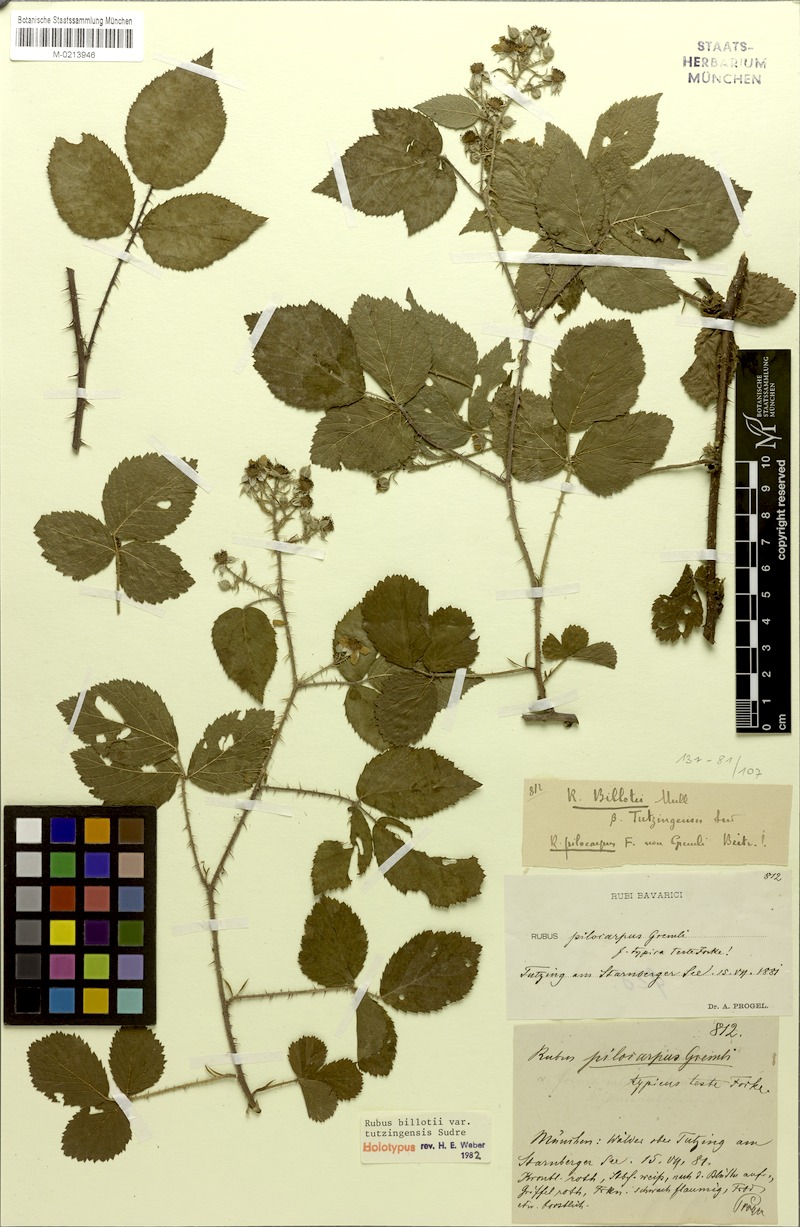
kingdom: Plantae
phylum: Tracheophyta
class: Magnoliopsida
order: Rosales
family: Rosaceae
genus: Rubus
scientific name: Rubus billotii
